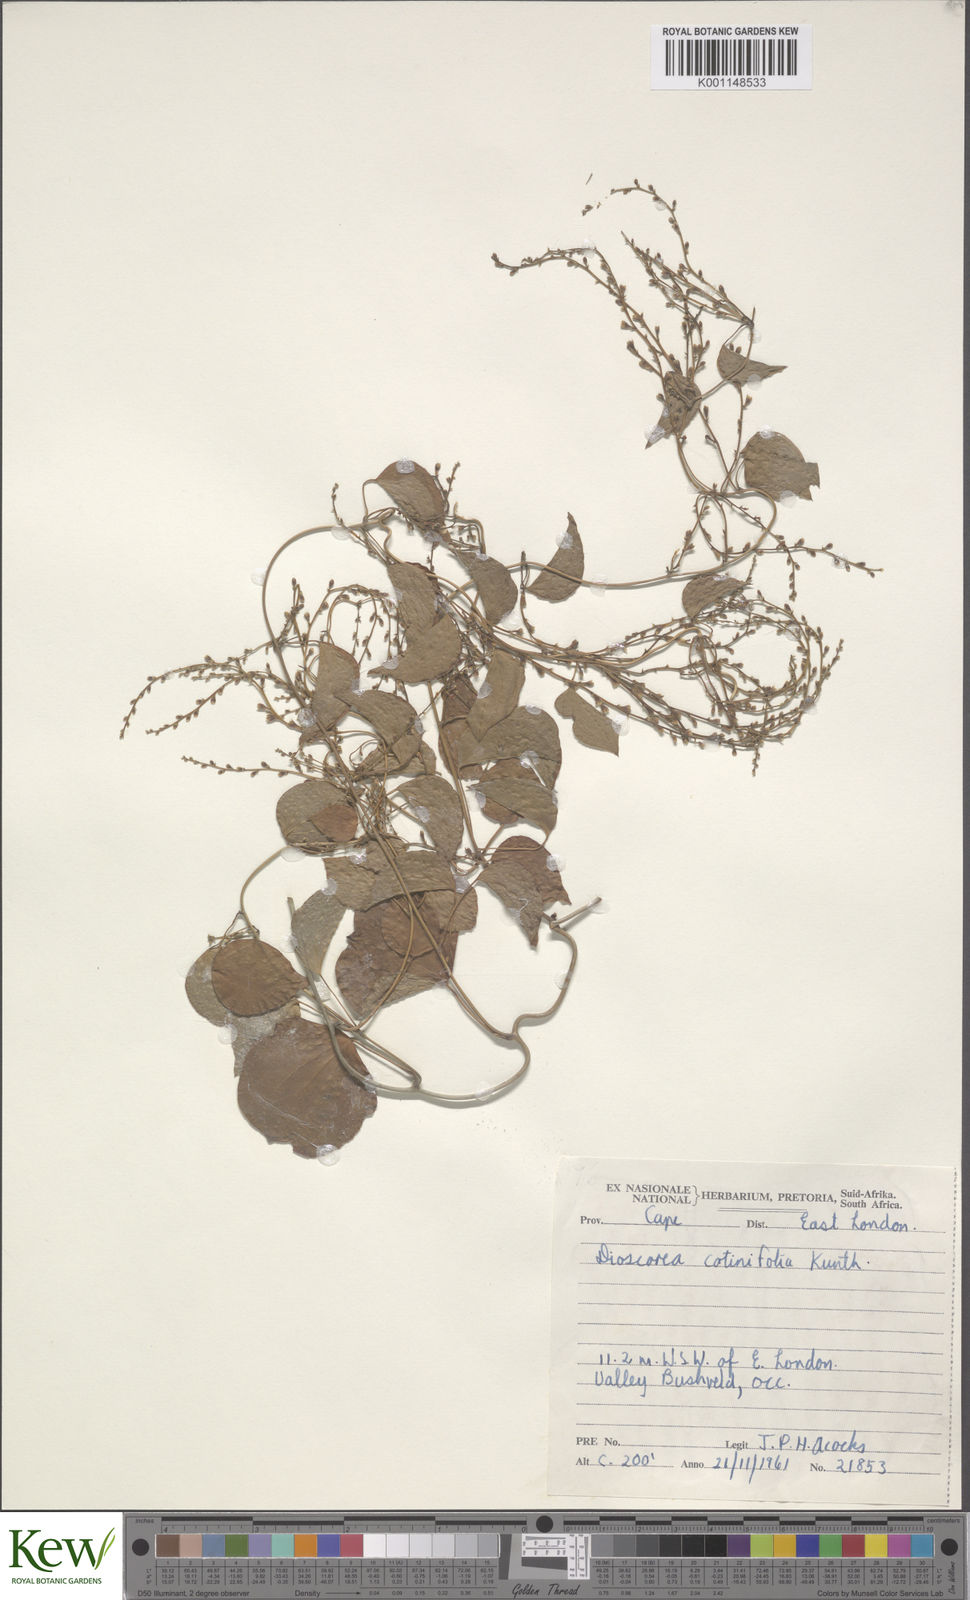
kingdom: Plantae
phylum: Tracheophyta
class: Liliopsida
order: Dioscoreales
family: Dioscoreaceae
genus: Dioscorea
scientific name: Dioscorea cotinifolia
